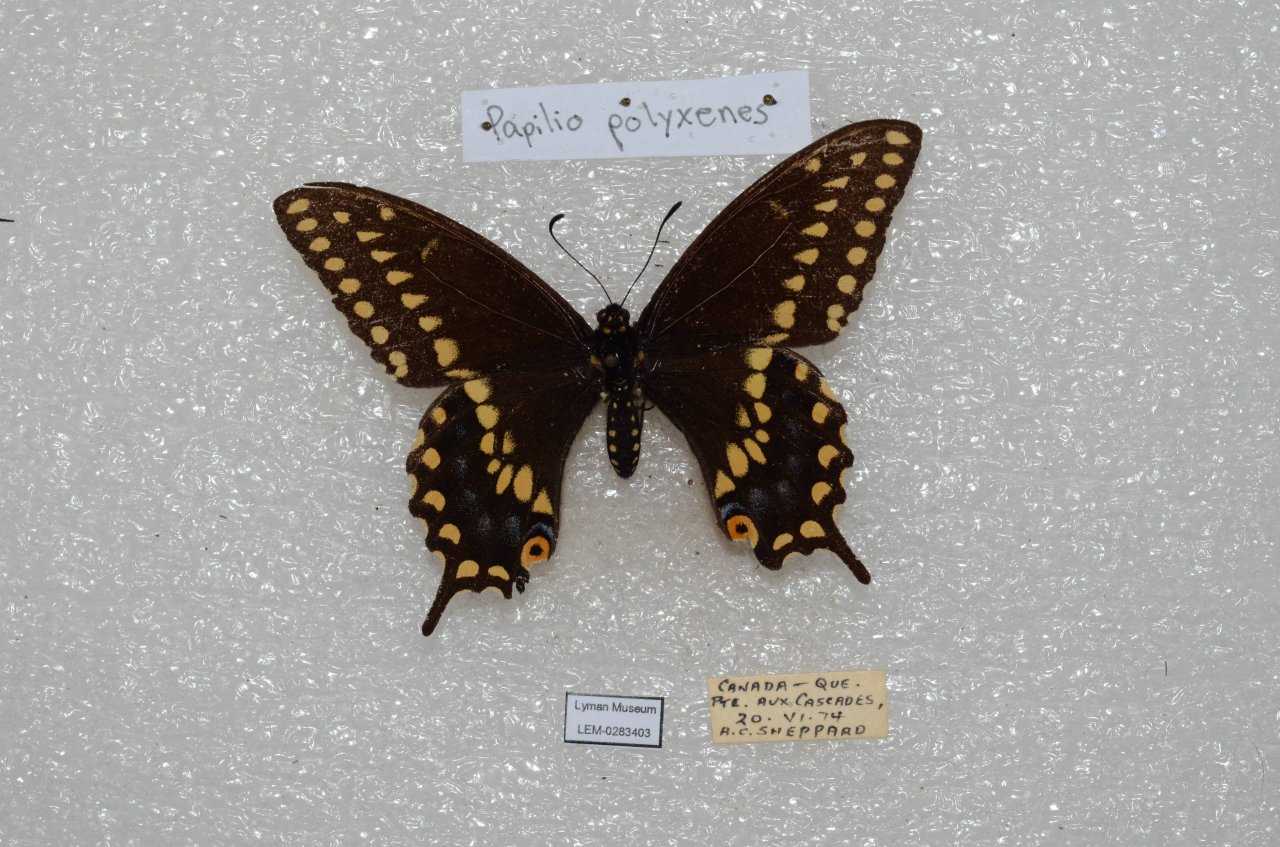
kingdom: Animalia
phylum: Arthropoda
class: Insecta
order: Lepidoptera
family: Papilionidae
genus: Papilio
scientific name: Papilio polyxenes
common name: Black Swallowtail
